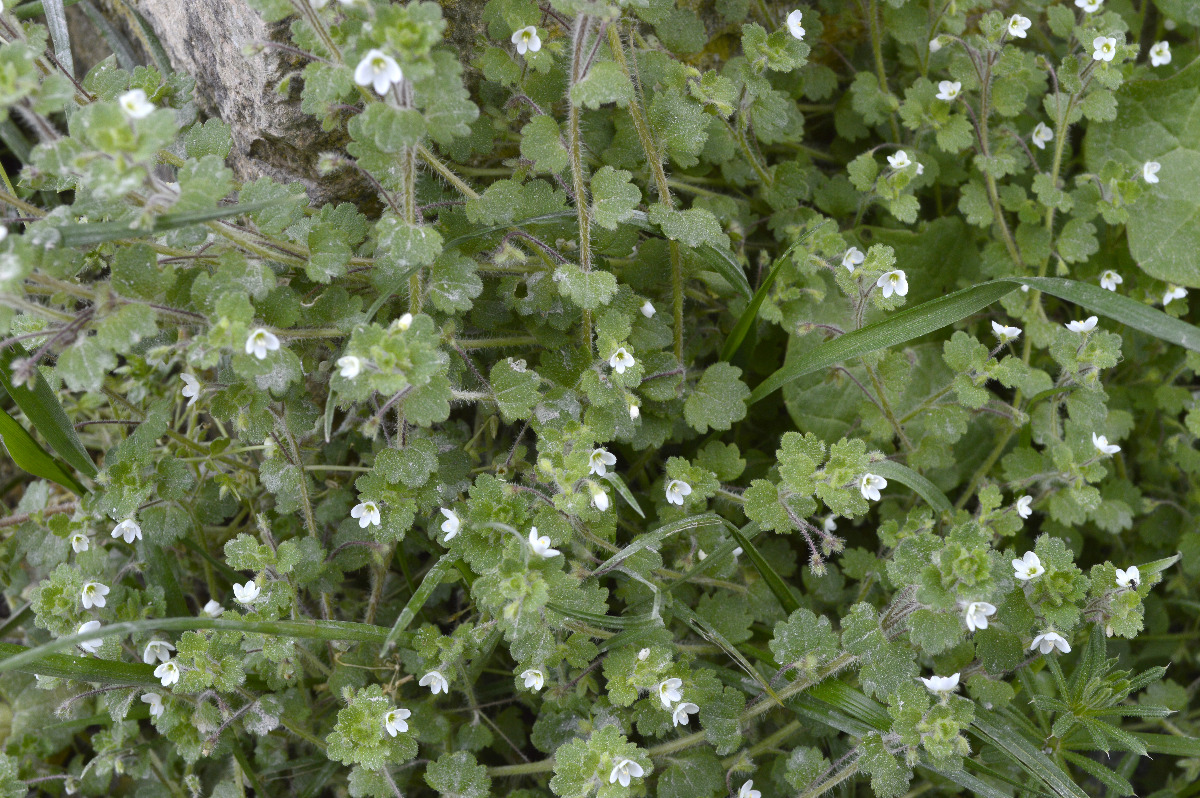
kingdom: Plantae
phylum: Tracheophyta
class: Magnoliopsida
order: Lamiales
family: Plantaginaceae
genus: Veronica
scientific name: Veronica cymbalaria
